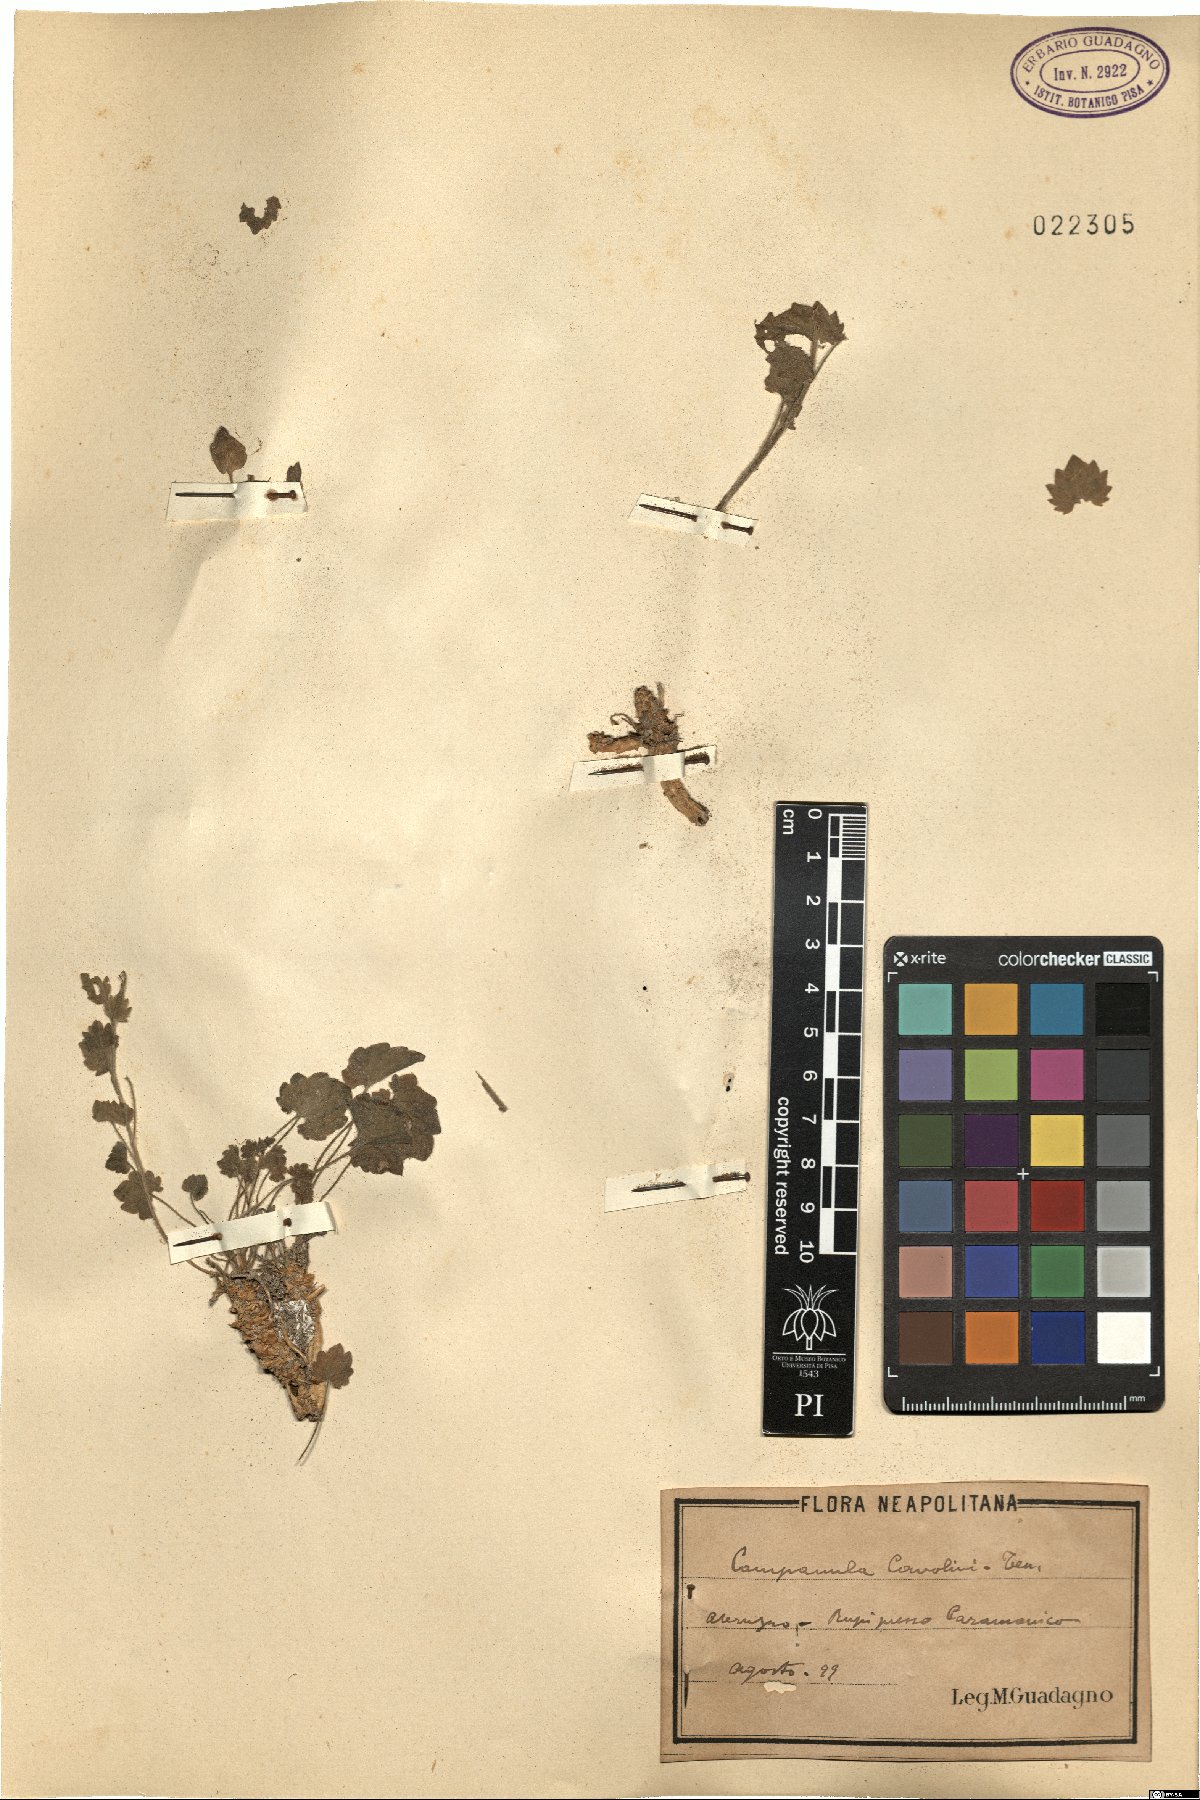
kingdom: Plantae
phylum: Tracheophyta
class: Magnoliopsida
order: Asterales
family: Campanulaceae
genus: Campanula
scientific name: Campanula fragilis
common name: Italian bellflower
